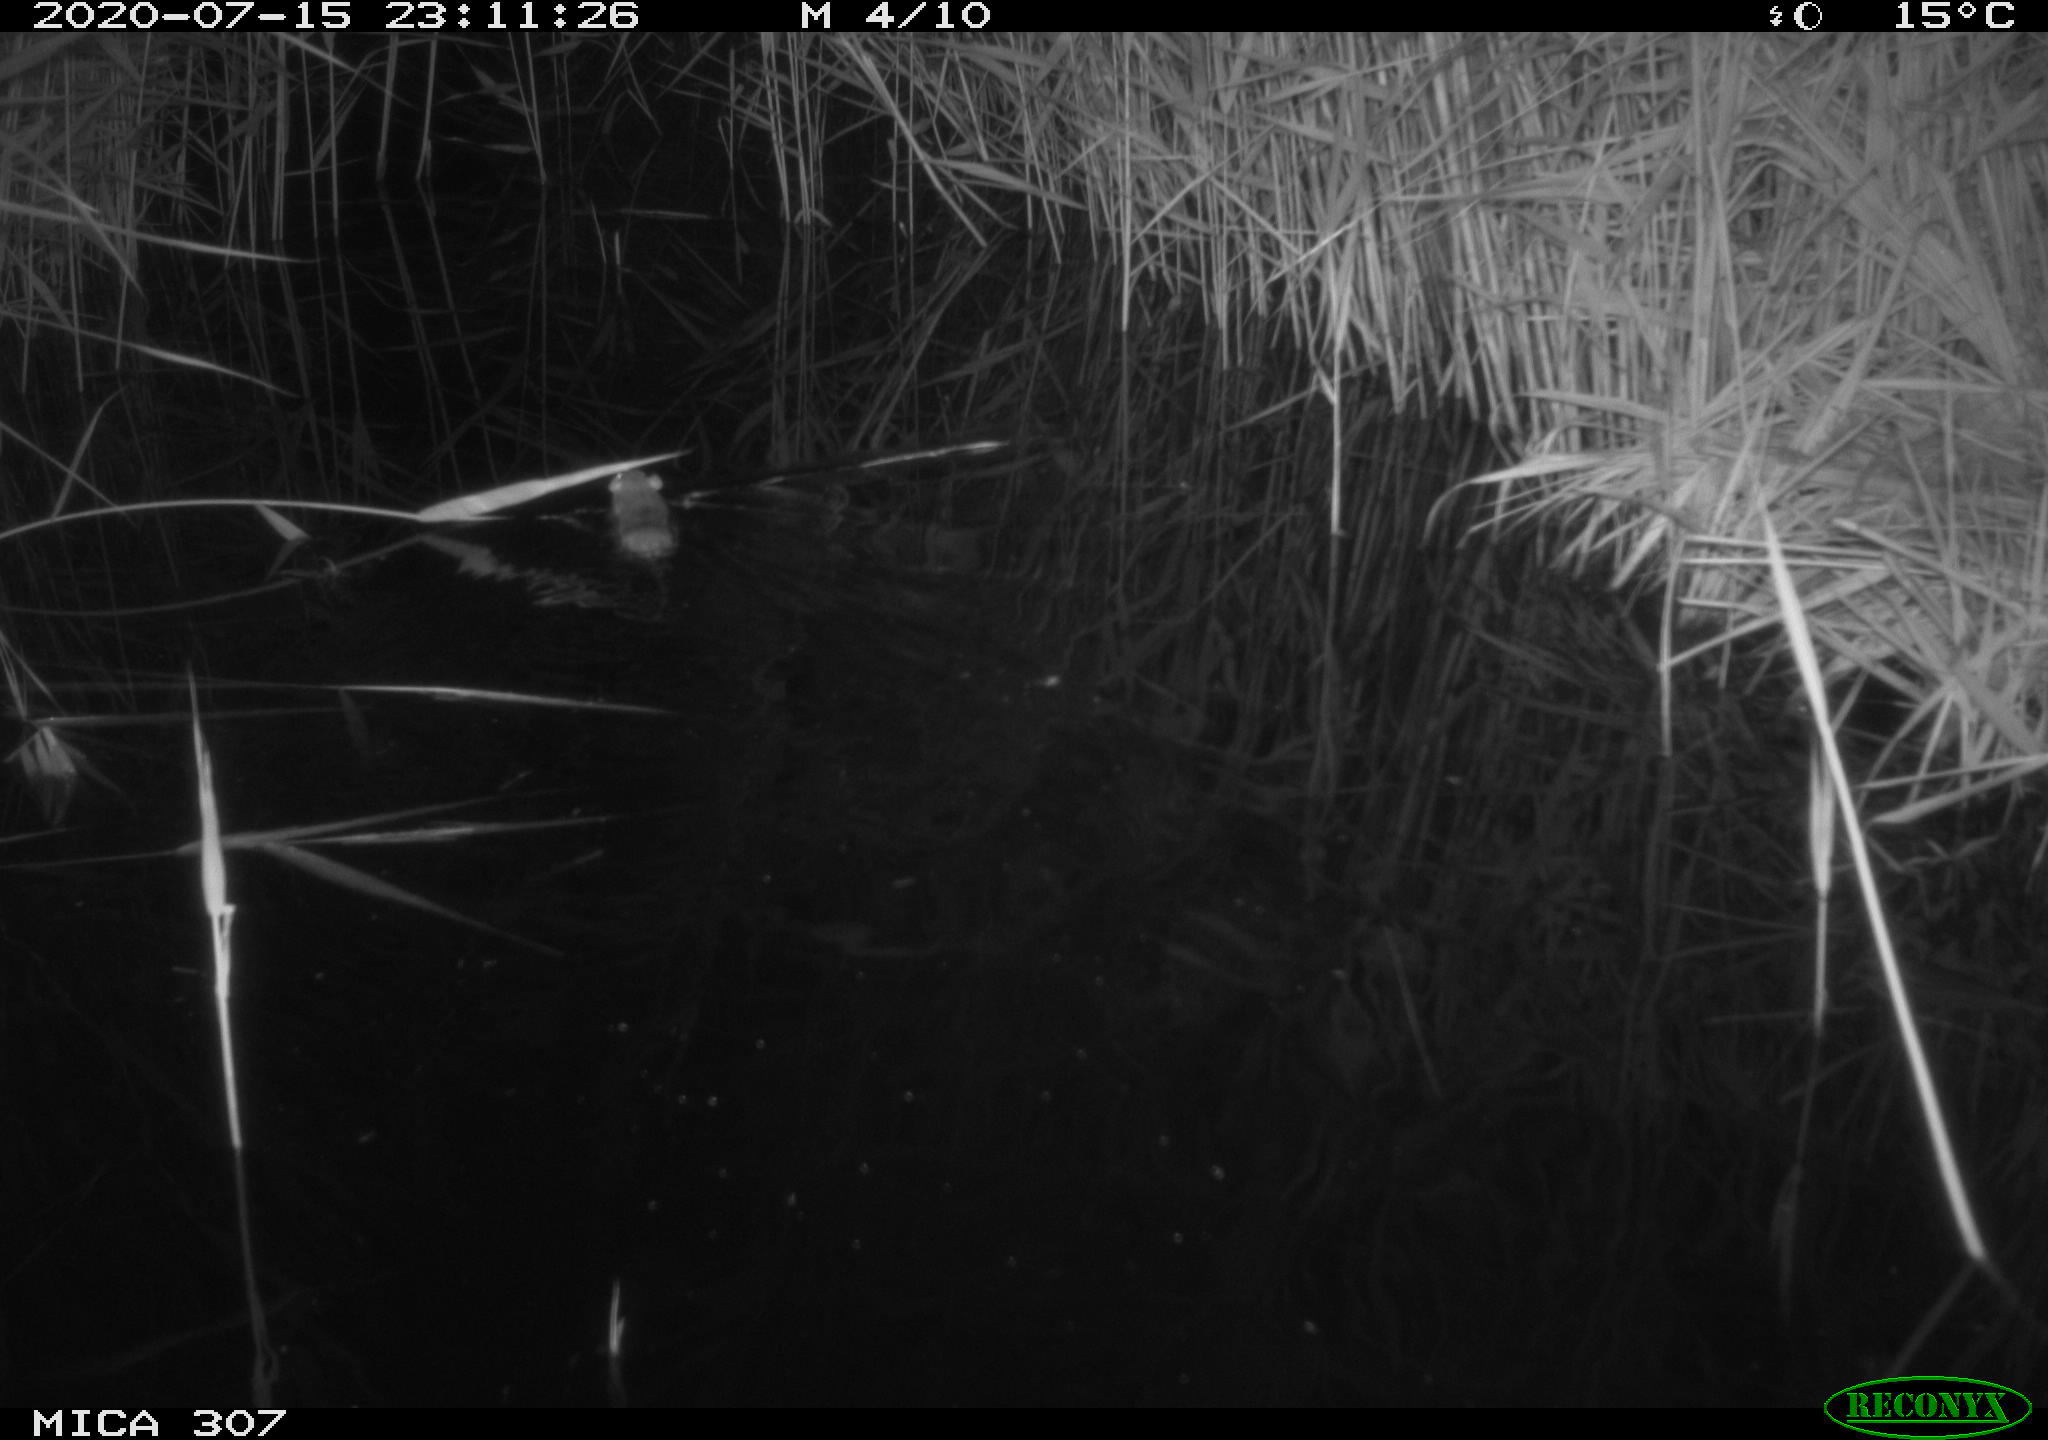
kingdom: Animalia
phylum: Chordata
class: Mammalia
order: Rodentia
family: Muridae
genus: Rattus
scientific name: Rattus norvegicus
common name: Brown rat
